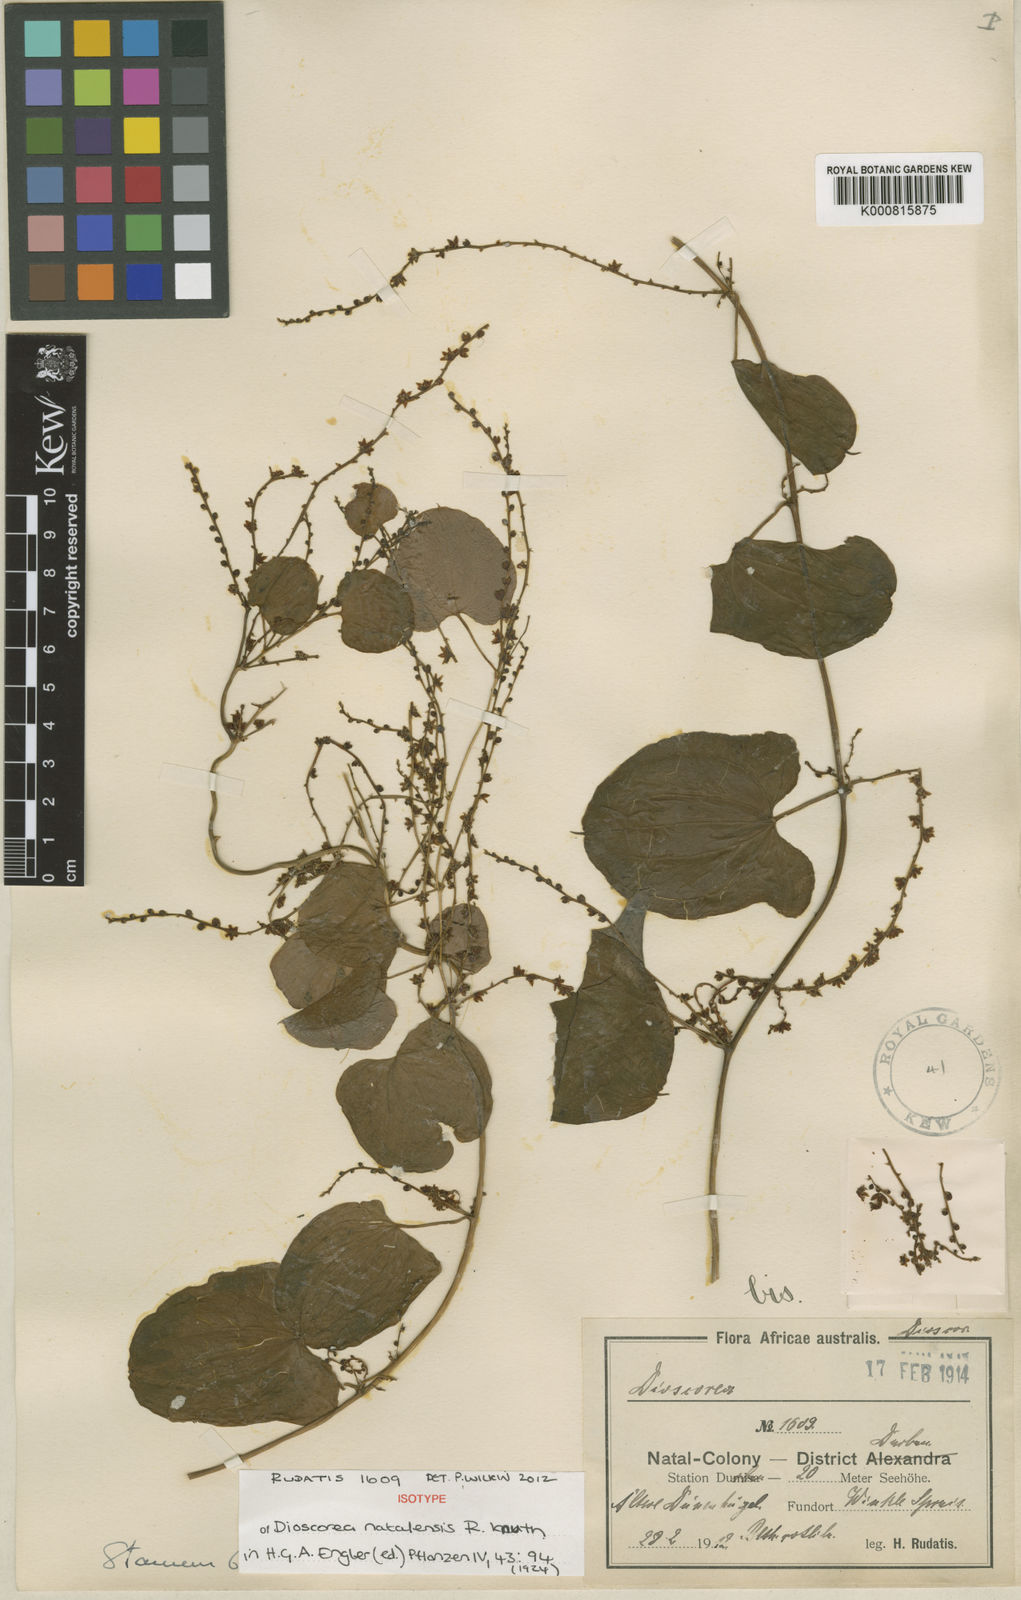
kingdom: Plantae
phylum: Tracheophyta
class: Liliopsida
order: Dioscoreales
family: Dioscoreaceae
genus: Dioscorea
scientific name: Dioscorea multiloba
